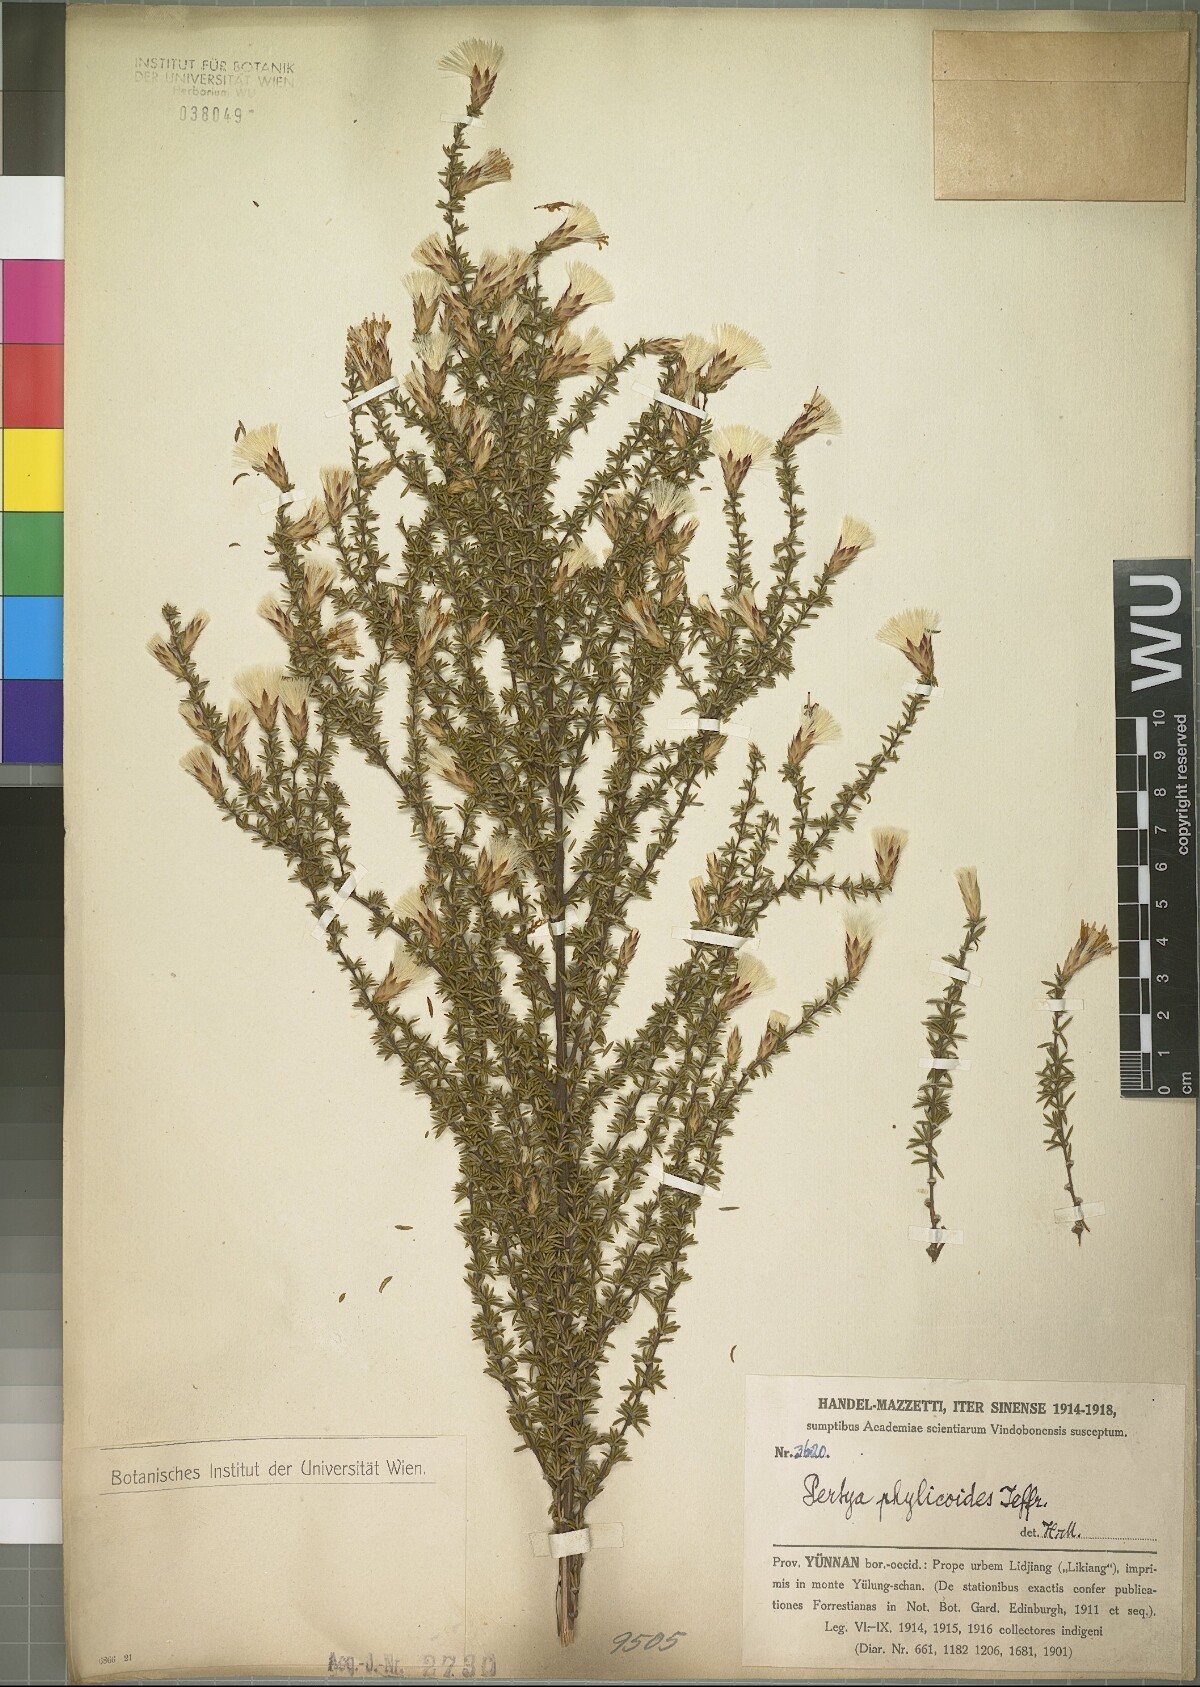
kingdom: Plantae
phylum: Tracheophyta
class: Magnoliopsida
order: Asterales
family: Asteraceae
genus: Pertya
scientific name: Pertya phylicoides
